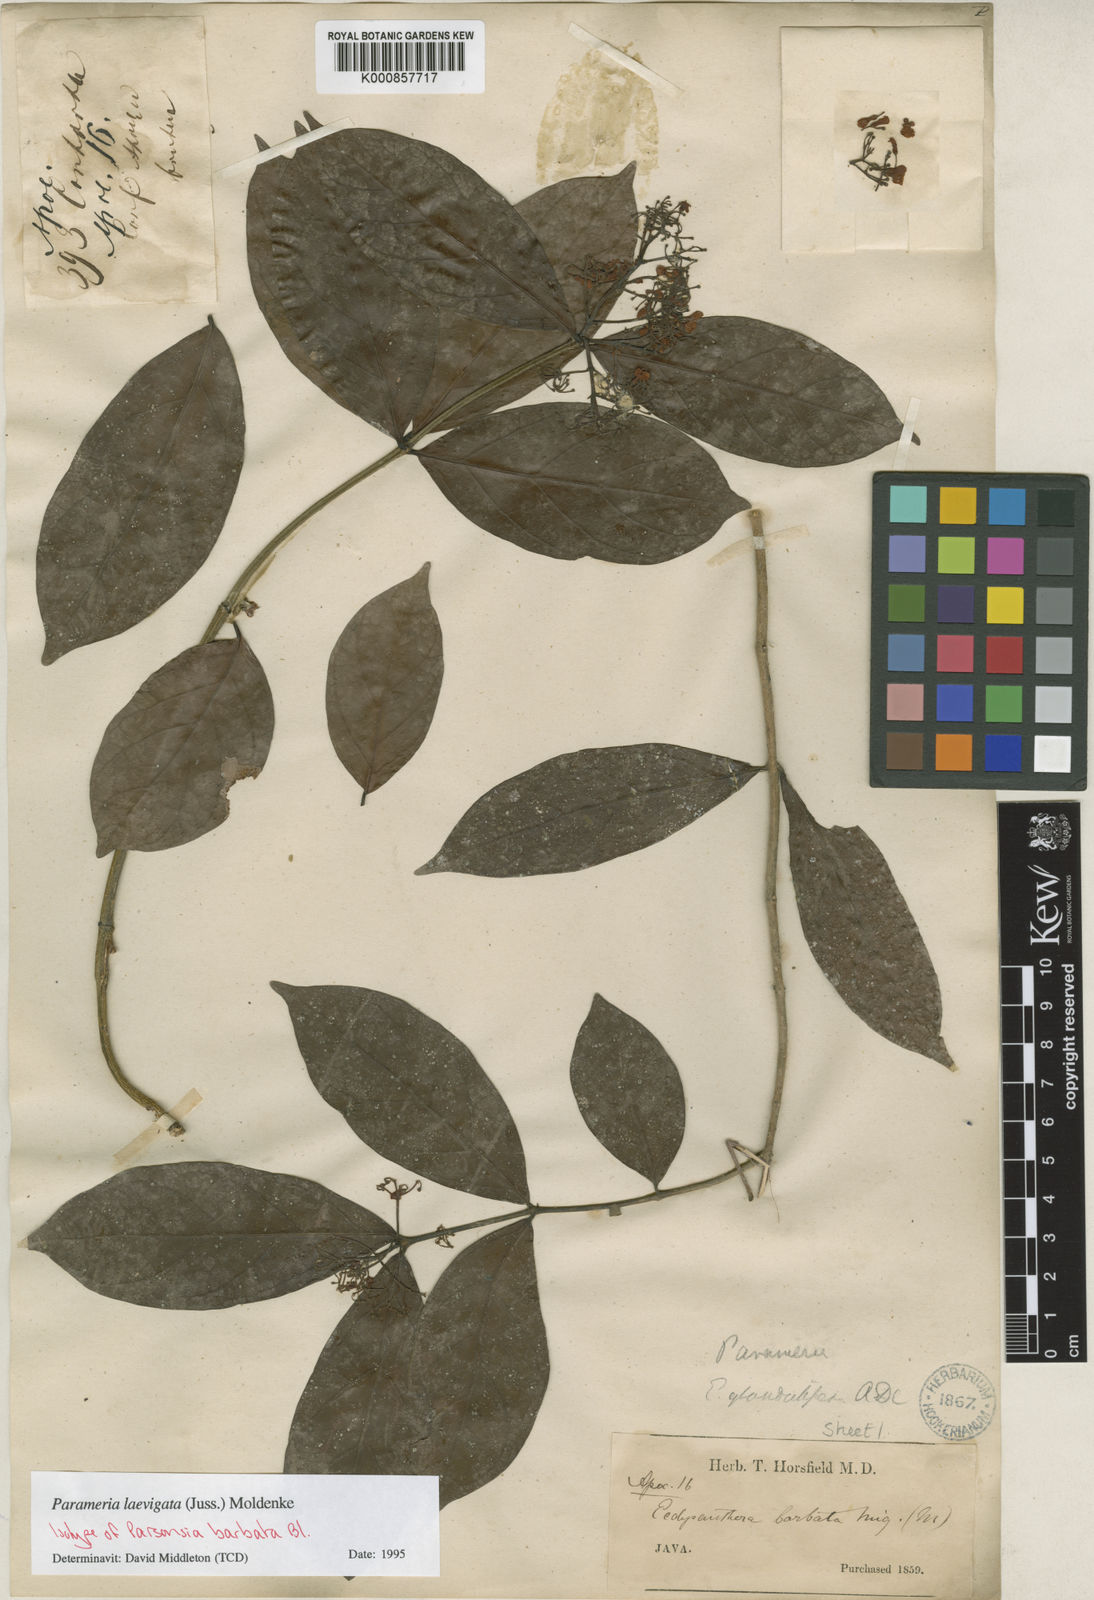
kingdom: Plantae
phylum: Tracheophyta
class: Magnoliopsida
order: Gentianales
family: Apocynaceae
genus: Urceola
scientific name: Urceola laevigata
